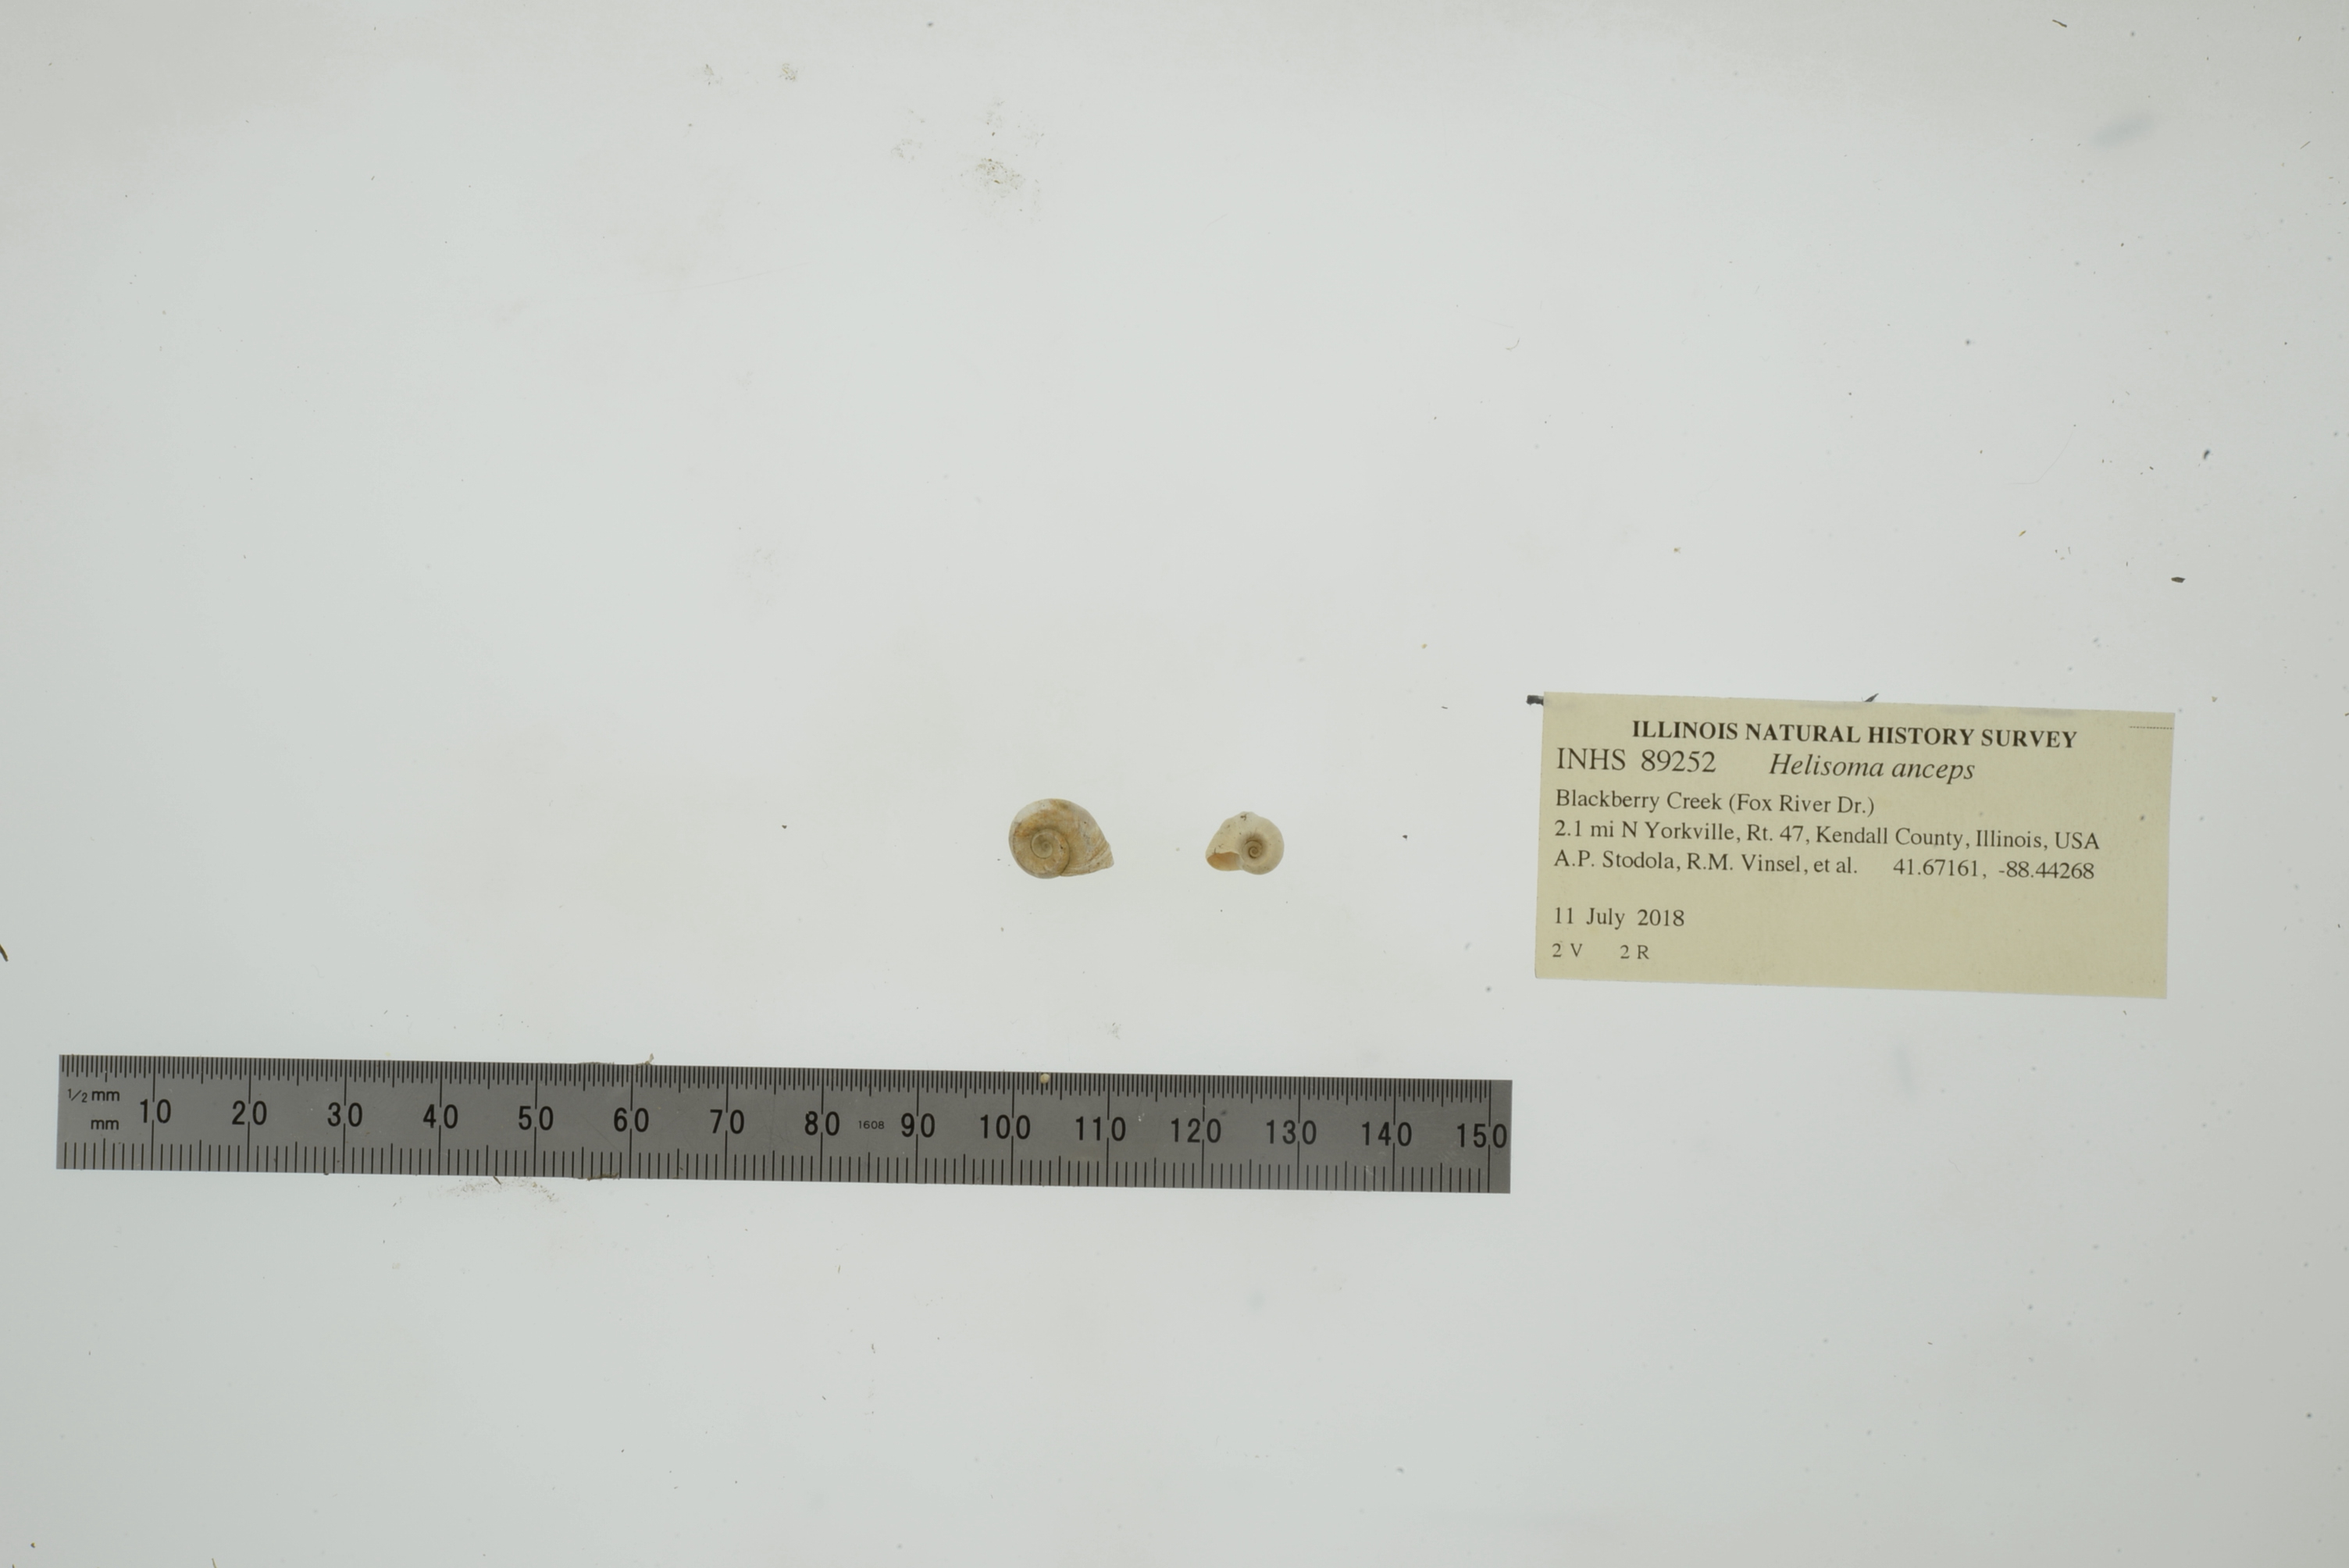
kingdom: Animalia
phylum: Mollusca
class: Gastropoda
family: Planorbidae
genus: Helisoma
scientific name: Helisoma anceps
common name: Two-ridge rams-horn
